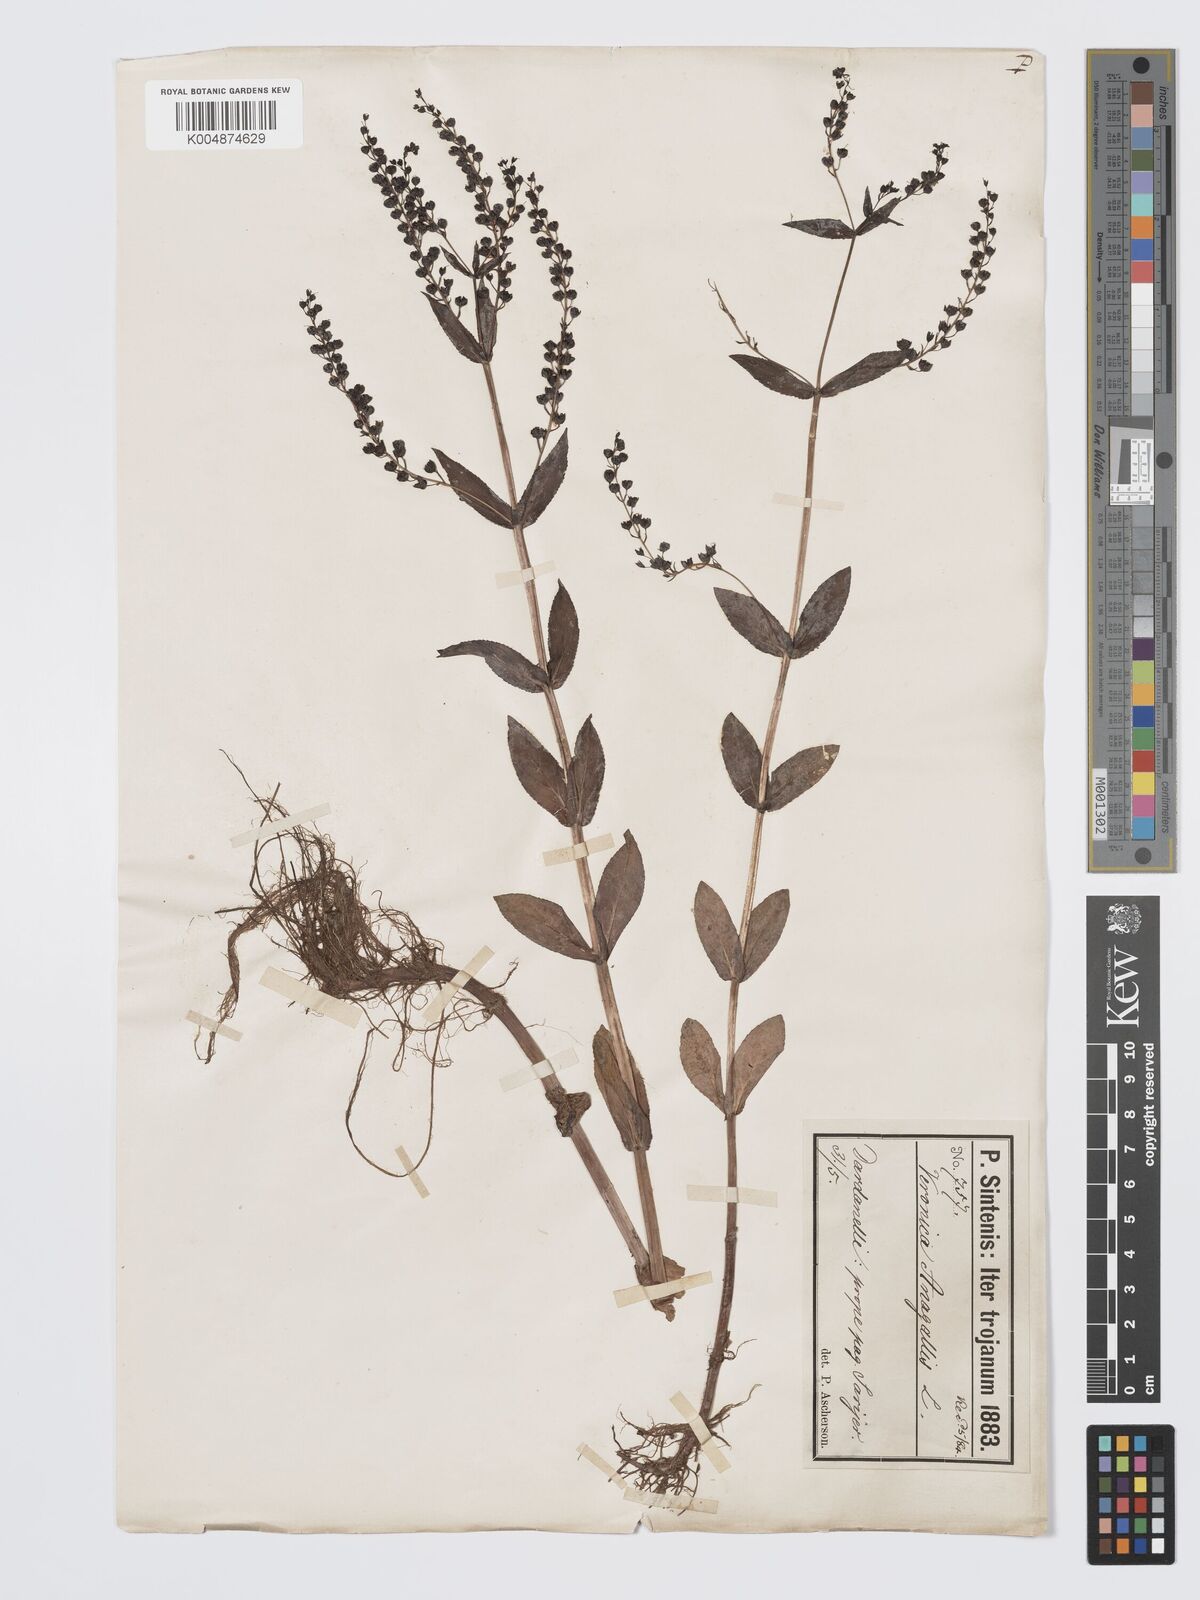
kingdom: Plantae
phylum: Tracheophyta
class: Magnoliopsida
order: Lamiales
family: Plantaginaceae
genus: Veronica
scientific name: Veronica
